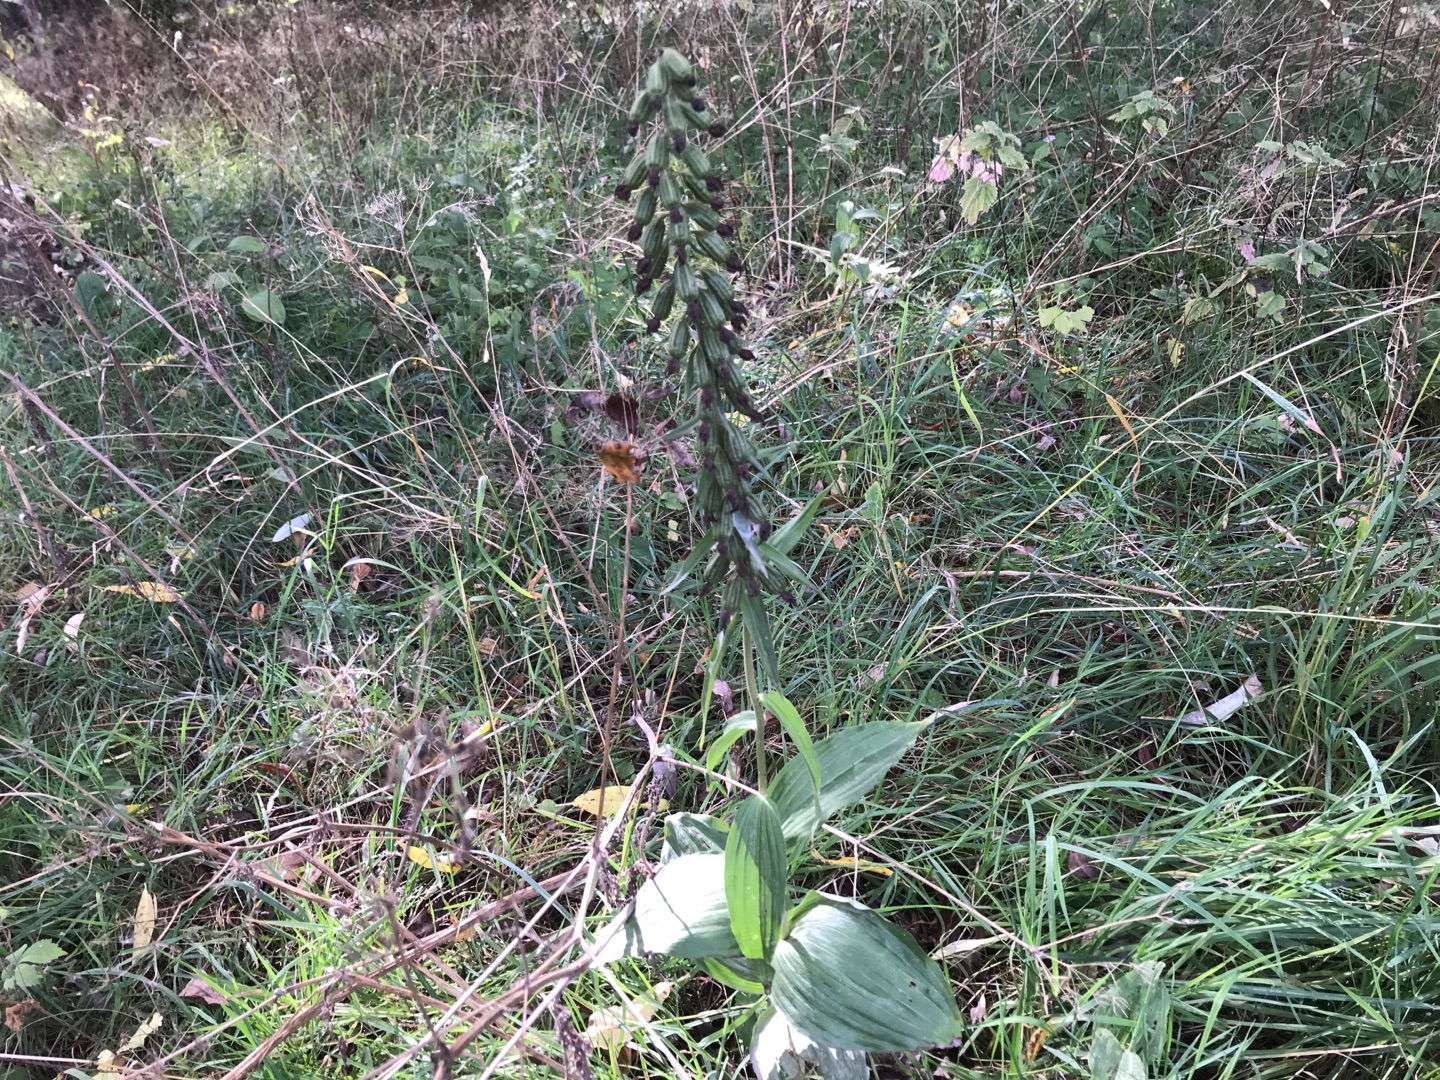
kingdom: Plantae
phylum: Tracheophyta
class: Liliopsida
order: Asparagales
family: Orchidaceae
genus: Epipactis
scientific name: Epipactis helleborine
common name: Skov-hullæbe
